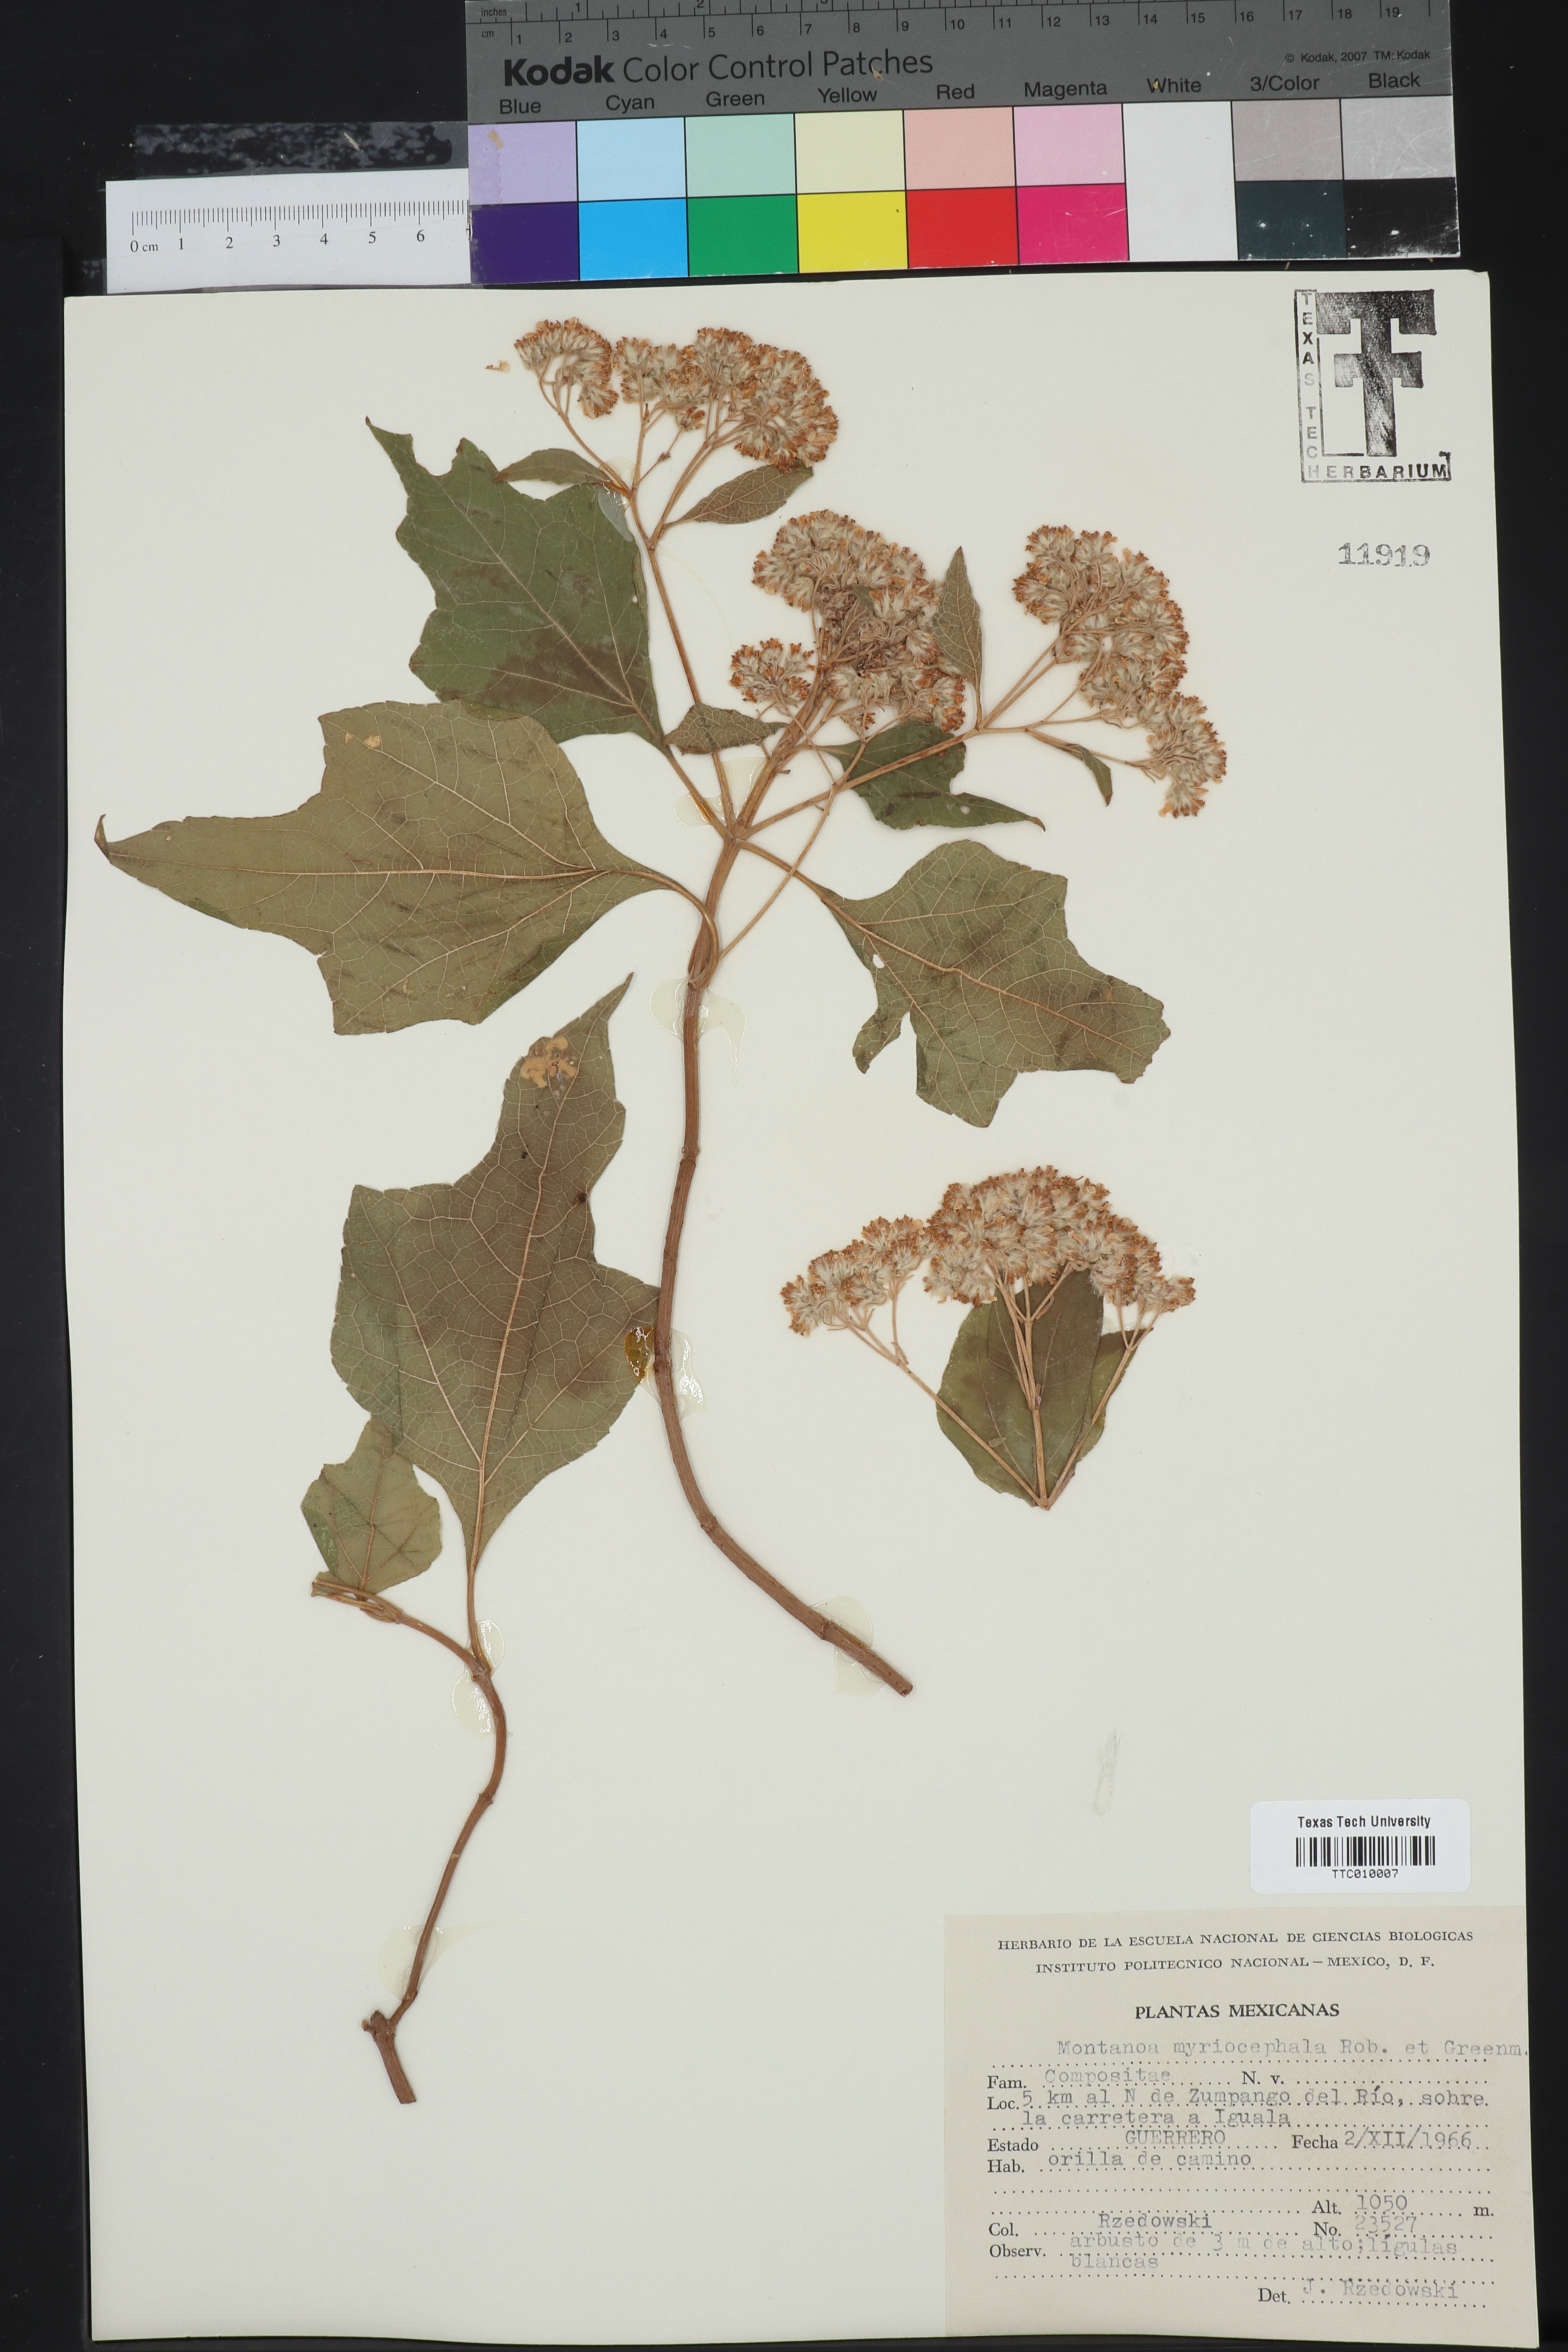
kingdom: Plantae
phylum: Tracheophyta
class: Magnoliopsida
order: Asterales
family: Asteraceae
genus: Montanoa
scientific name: Montanoa tomentosa
